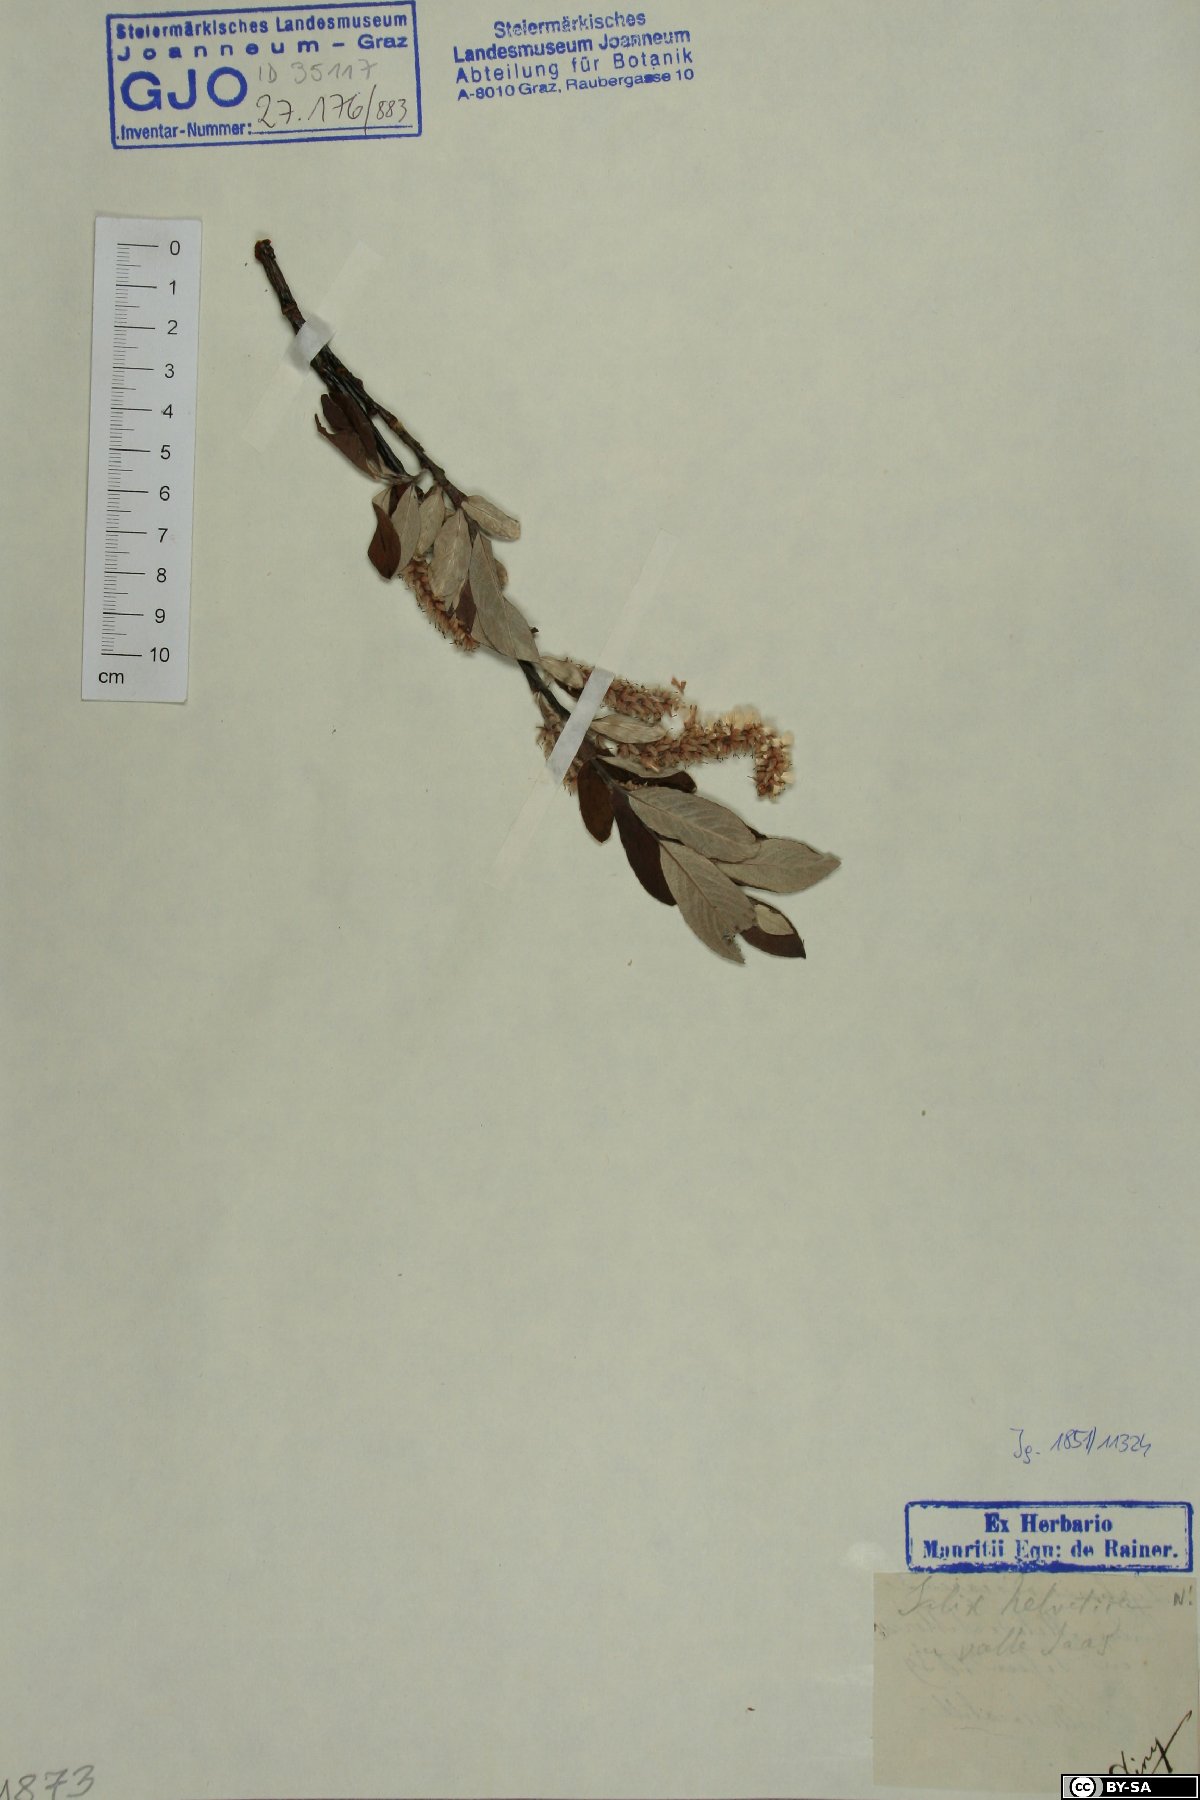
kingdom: Plantae
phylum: Tracheophyta
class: Magnoliopsida
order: Malpighiales
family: Salicaceae
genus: Salix
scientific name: Salix helvetica
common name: Swiss willow
